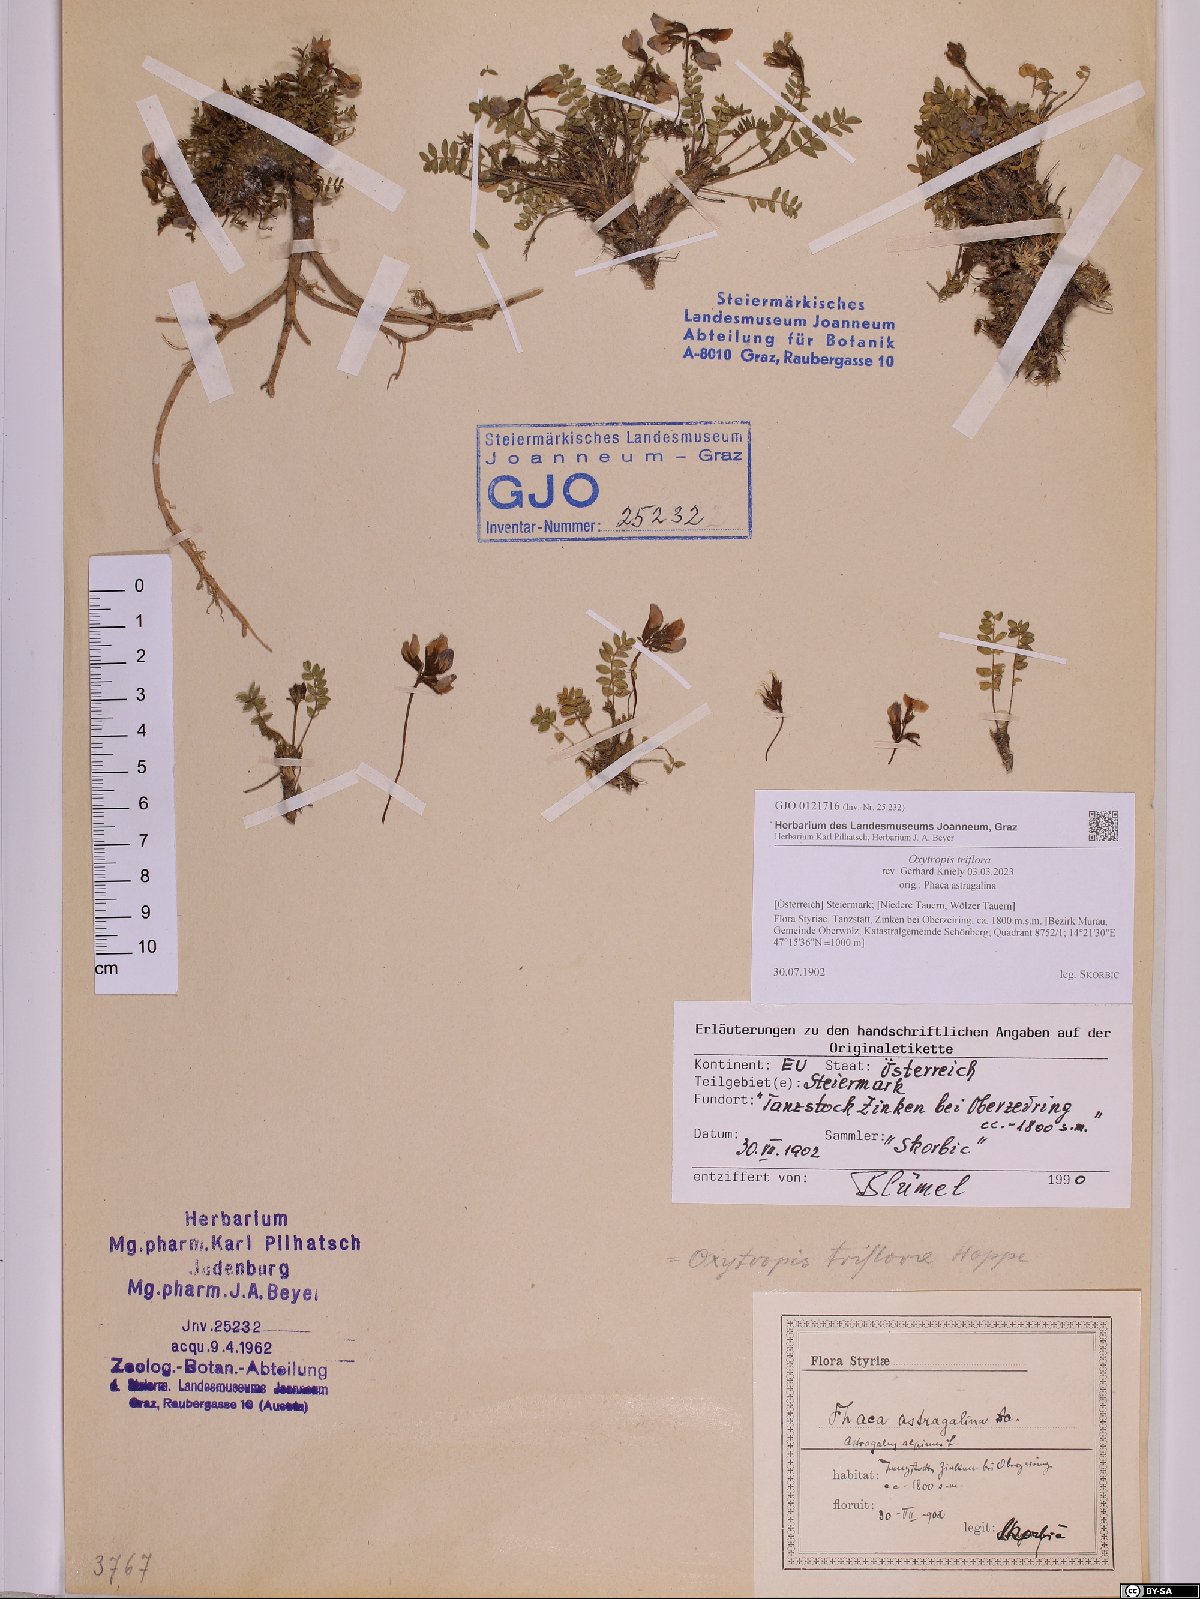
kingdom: Plantae
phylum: Tracheophyta
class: Magnoliopsida
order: Fabales
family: Fabaceae
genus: Oxytropis
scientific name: Oxytropis triflora
